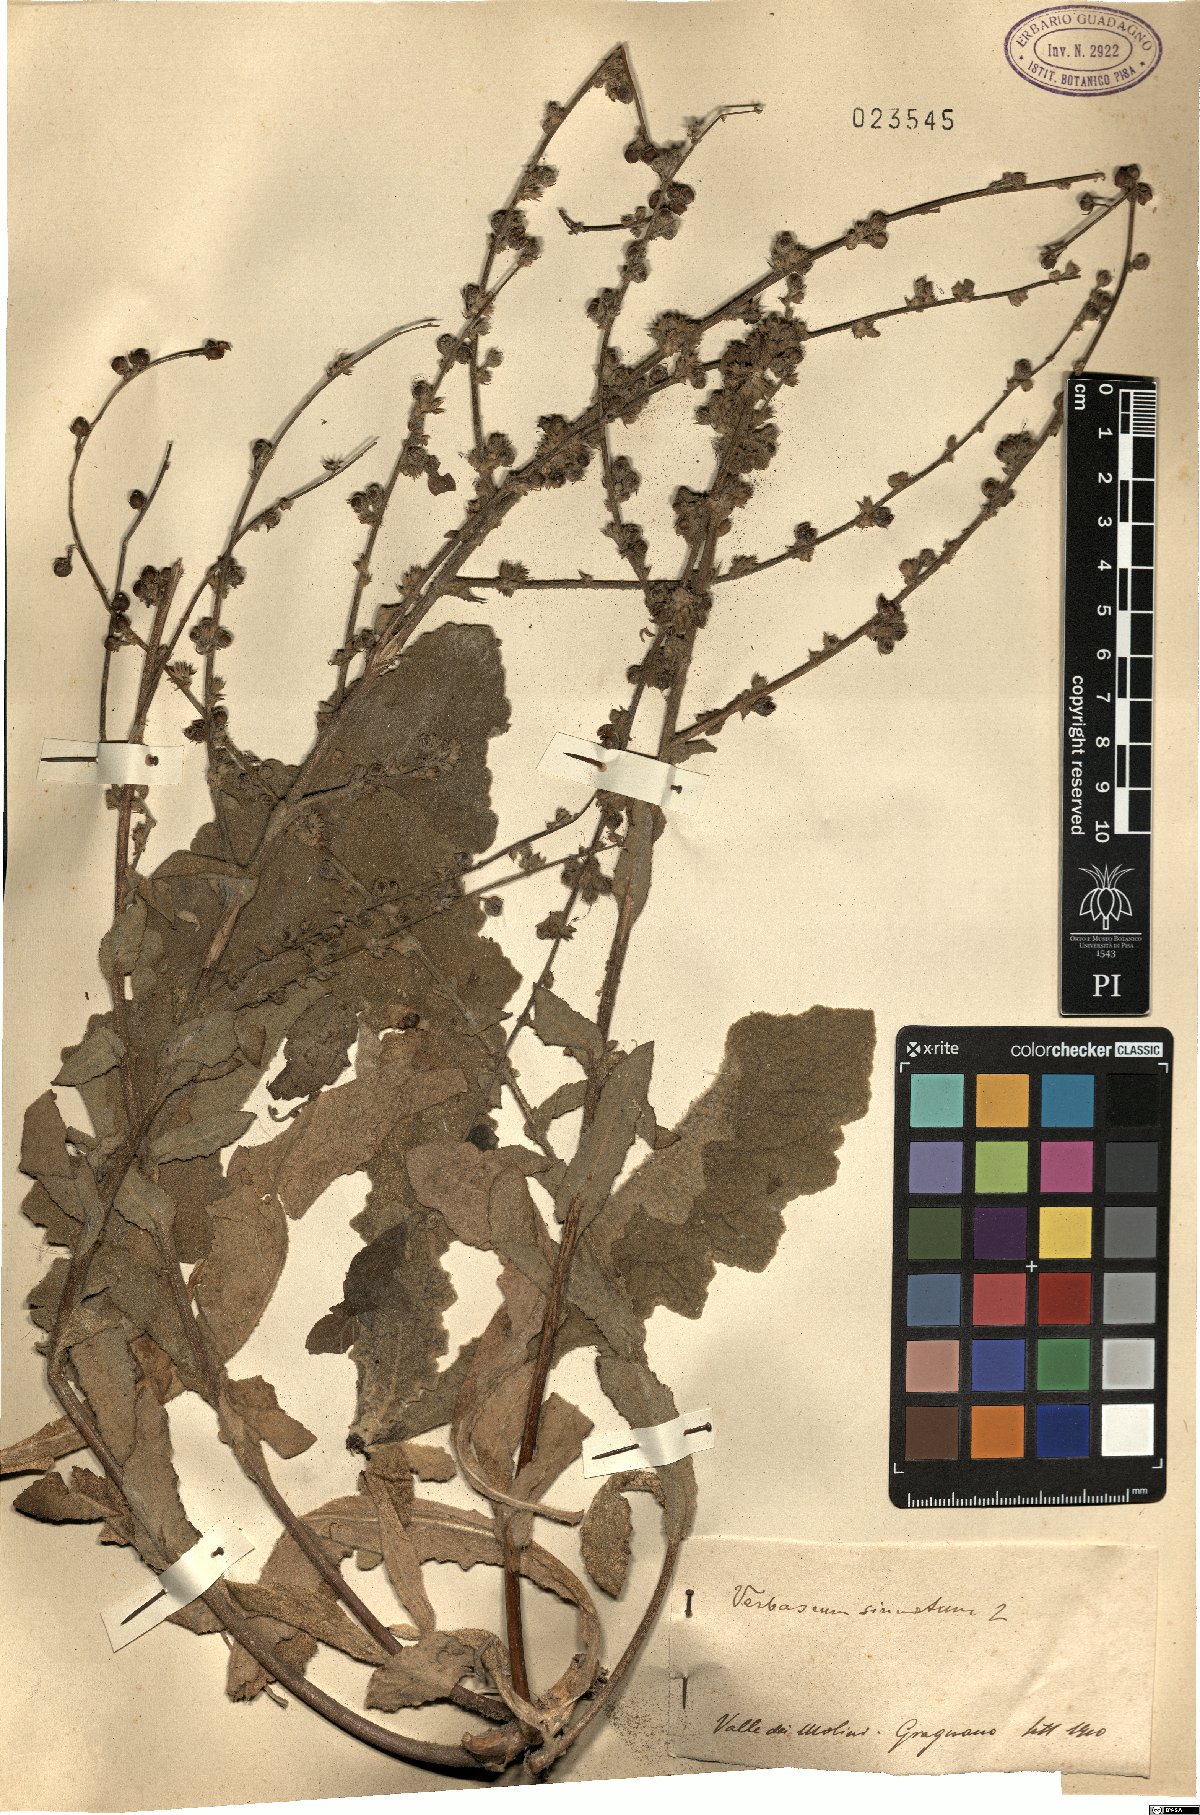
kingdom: Plantae
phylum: Tracheophyta
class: Magnoliopsida
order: Lamiales
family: Scrophulariaceae
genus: Verbascum
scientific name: Verbascum sinuatum
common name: Wavyleaf mullein
